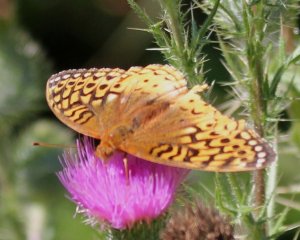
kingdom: Animalia
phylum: Arthropoda
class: Insecta
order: Lepidoptera
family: Nymphalidae
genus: Speyeria
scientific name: Speyeria cybele
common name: Great Spangled Fritillary
